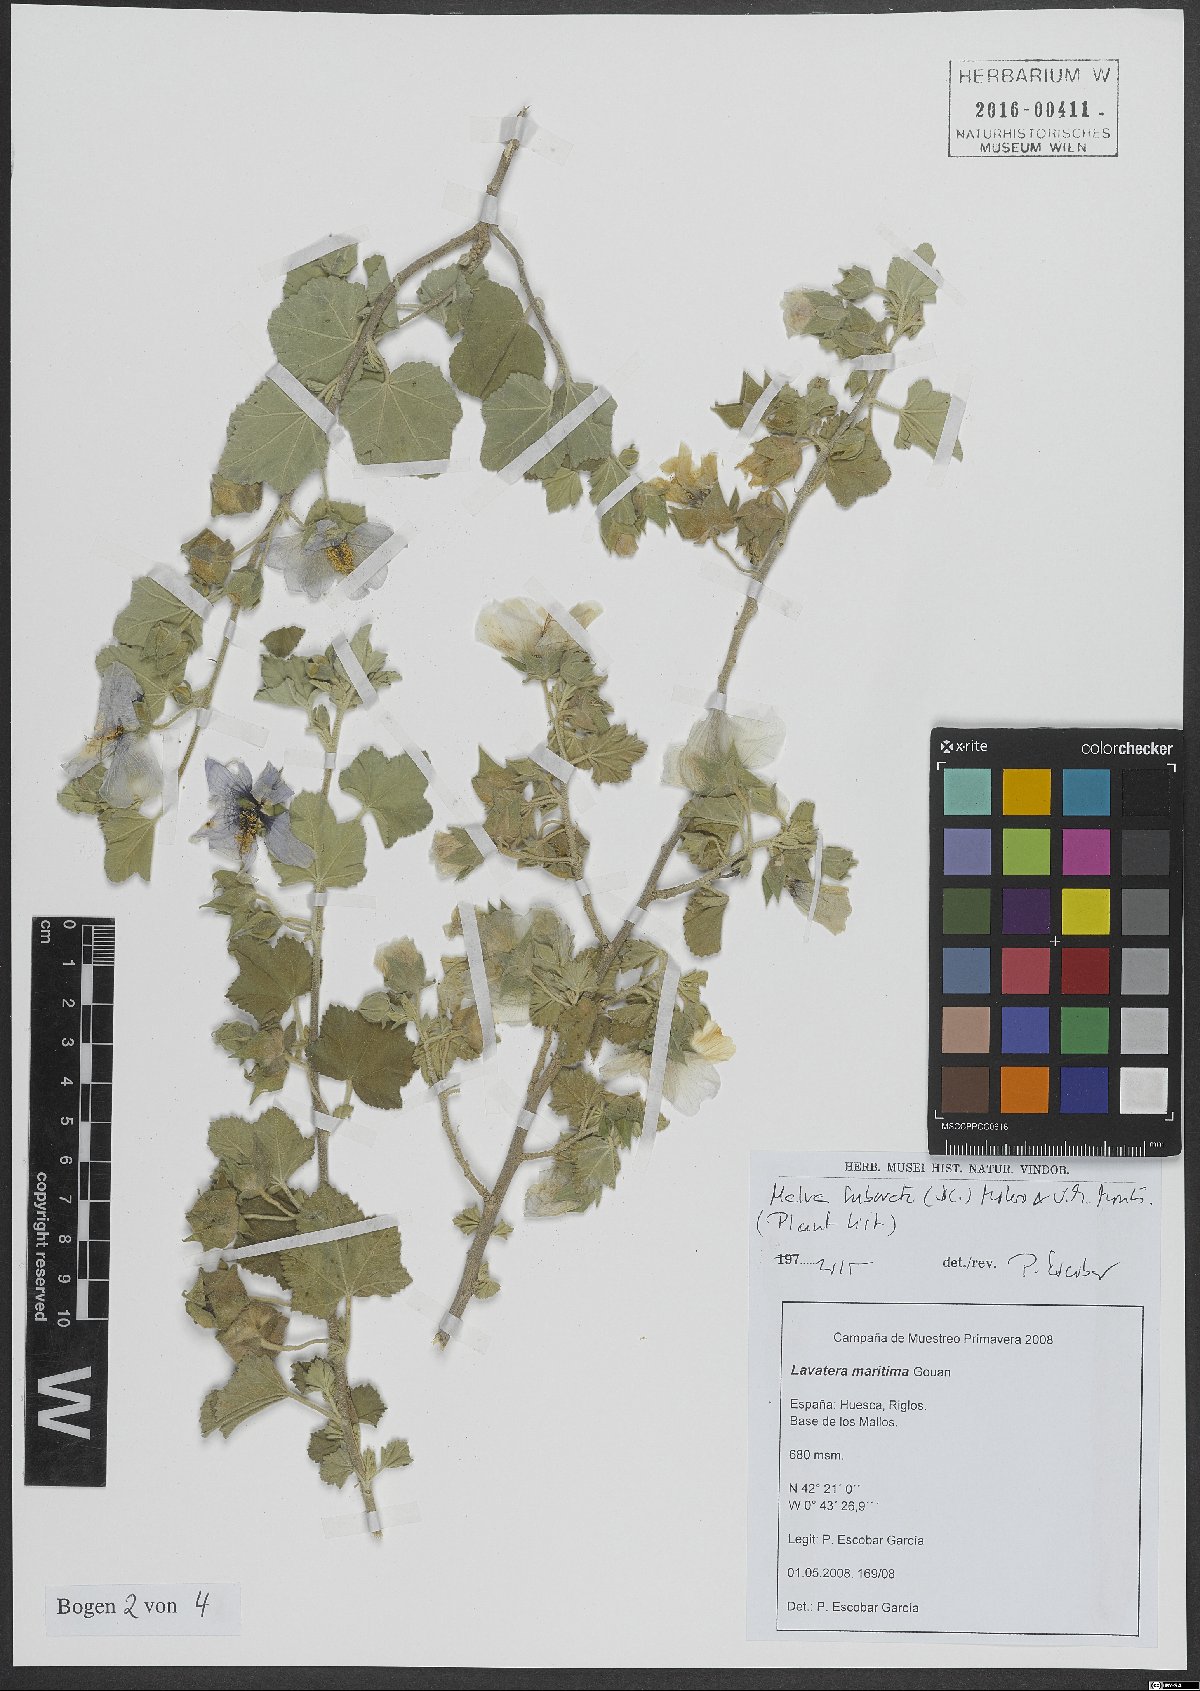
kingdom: Plantae
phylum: Tracheophyta
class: Magnoliopsida
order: Malvales
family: Malvaceae
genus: Malva
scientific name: Malva subovata
